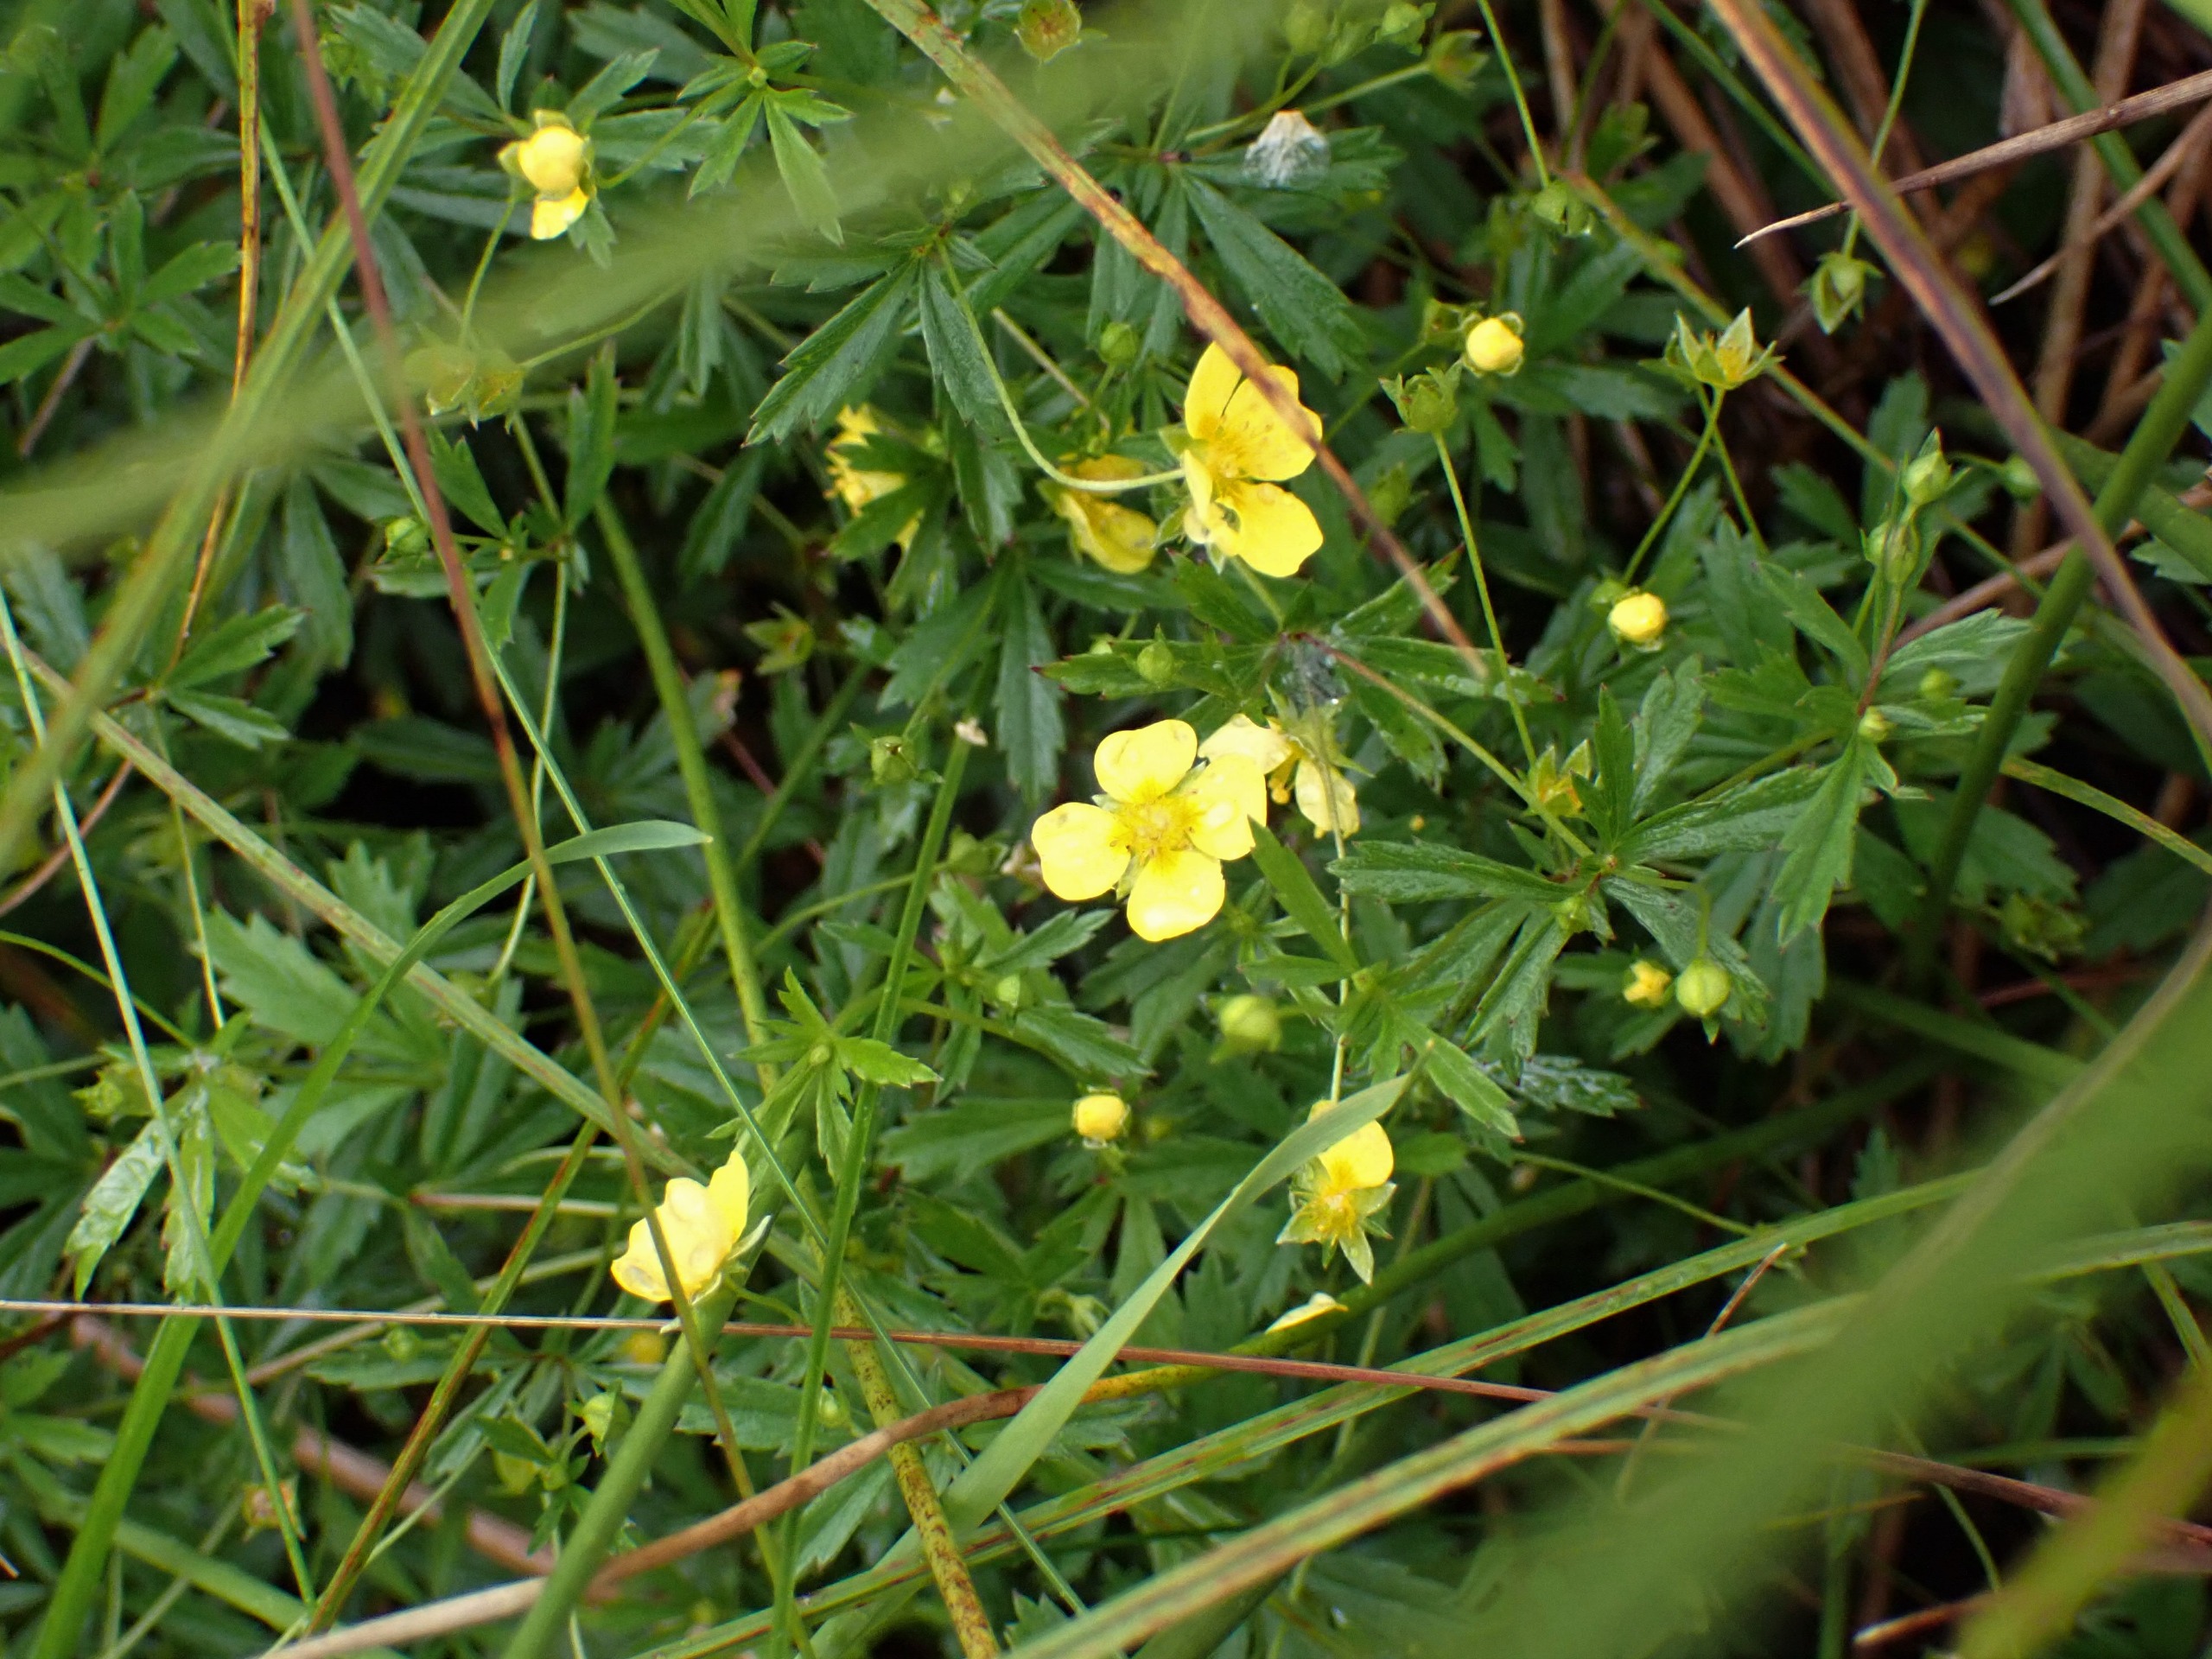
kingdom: Plantae
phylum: Tracheophyta
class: Magnoliopsida
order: Rosales
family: Rosaceae
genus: Potentilla
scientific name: Potentilla erecta
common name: Tormentil
